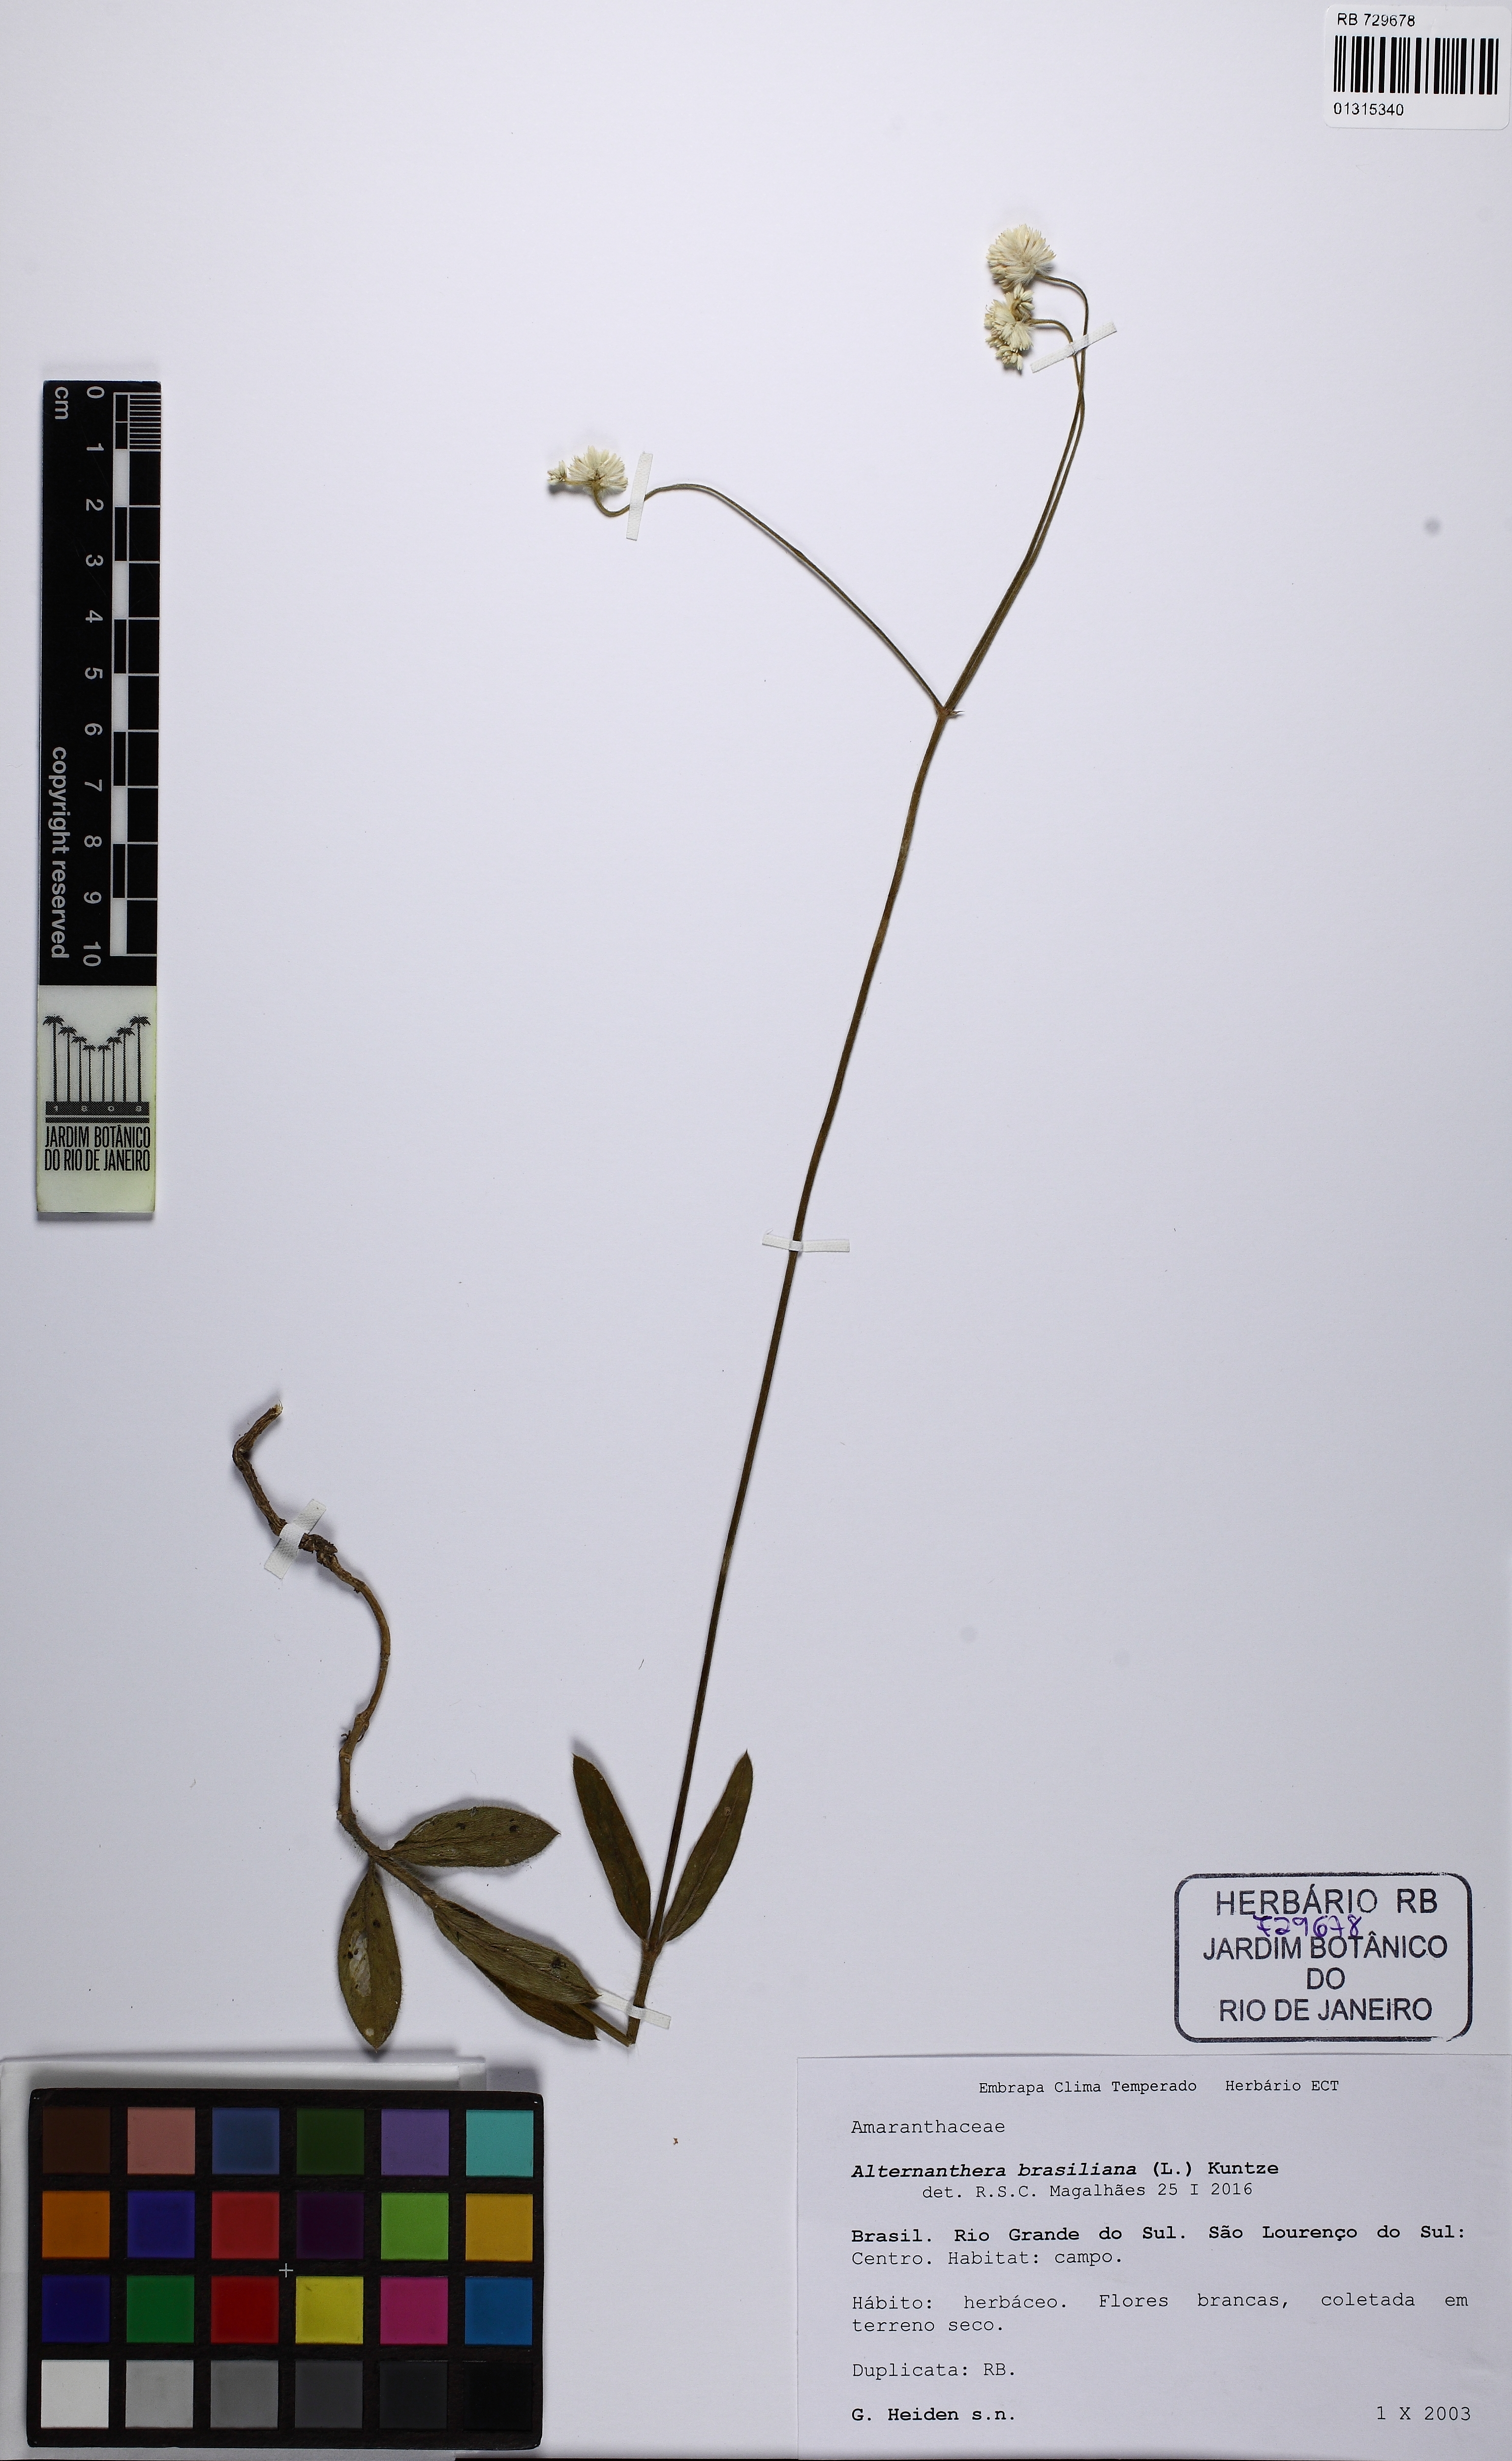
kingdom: Plantae
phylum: Tracheophyta
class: Magnoliopsida
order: Caryophyllales
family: Amaranthaceae
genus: Alternanthera
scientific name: Alternanthera brasiliana
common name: Brazilian joyweed
